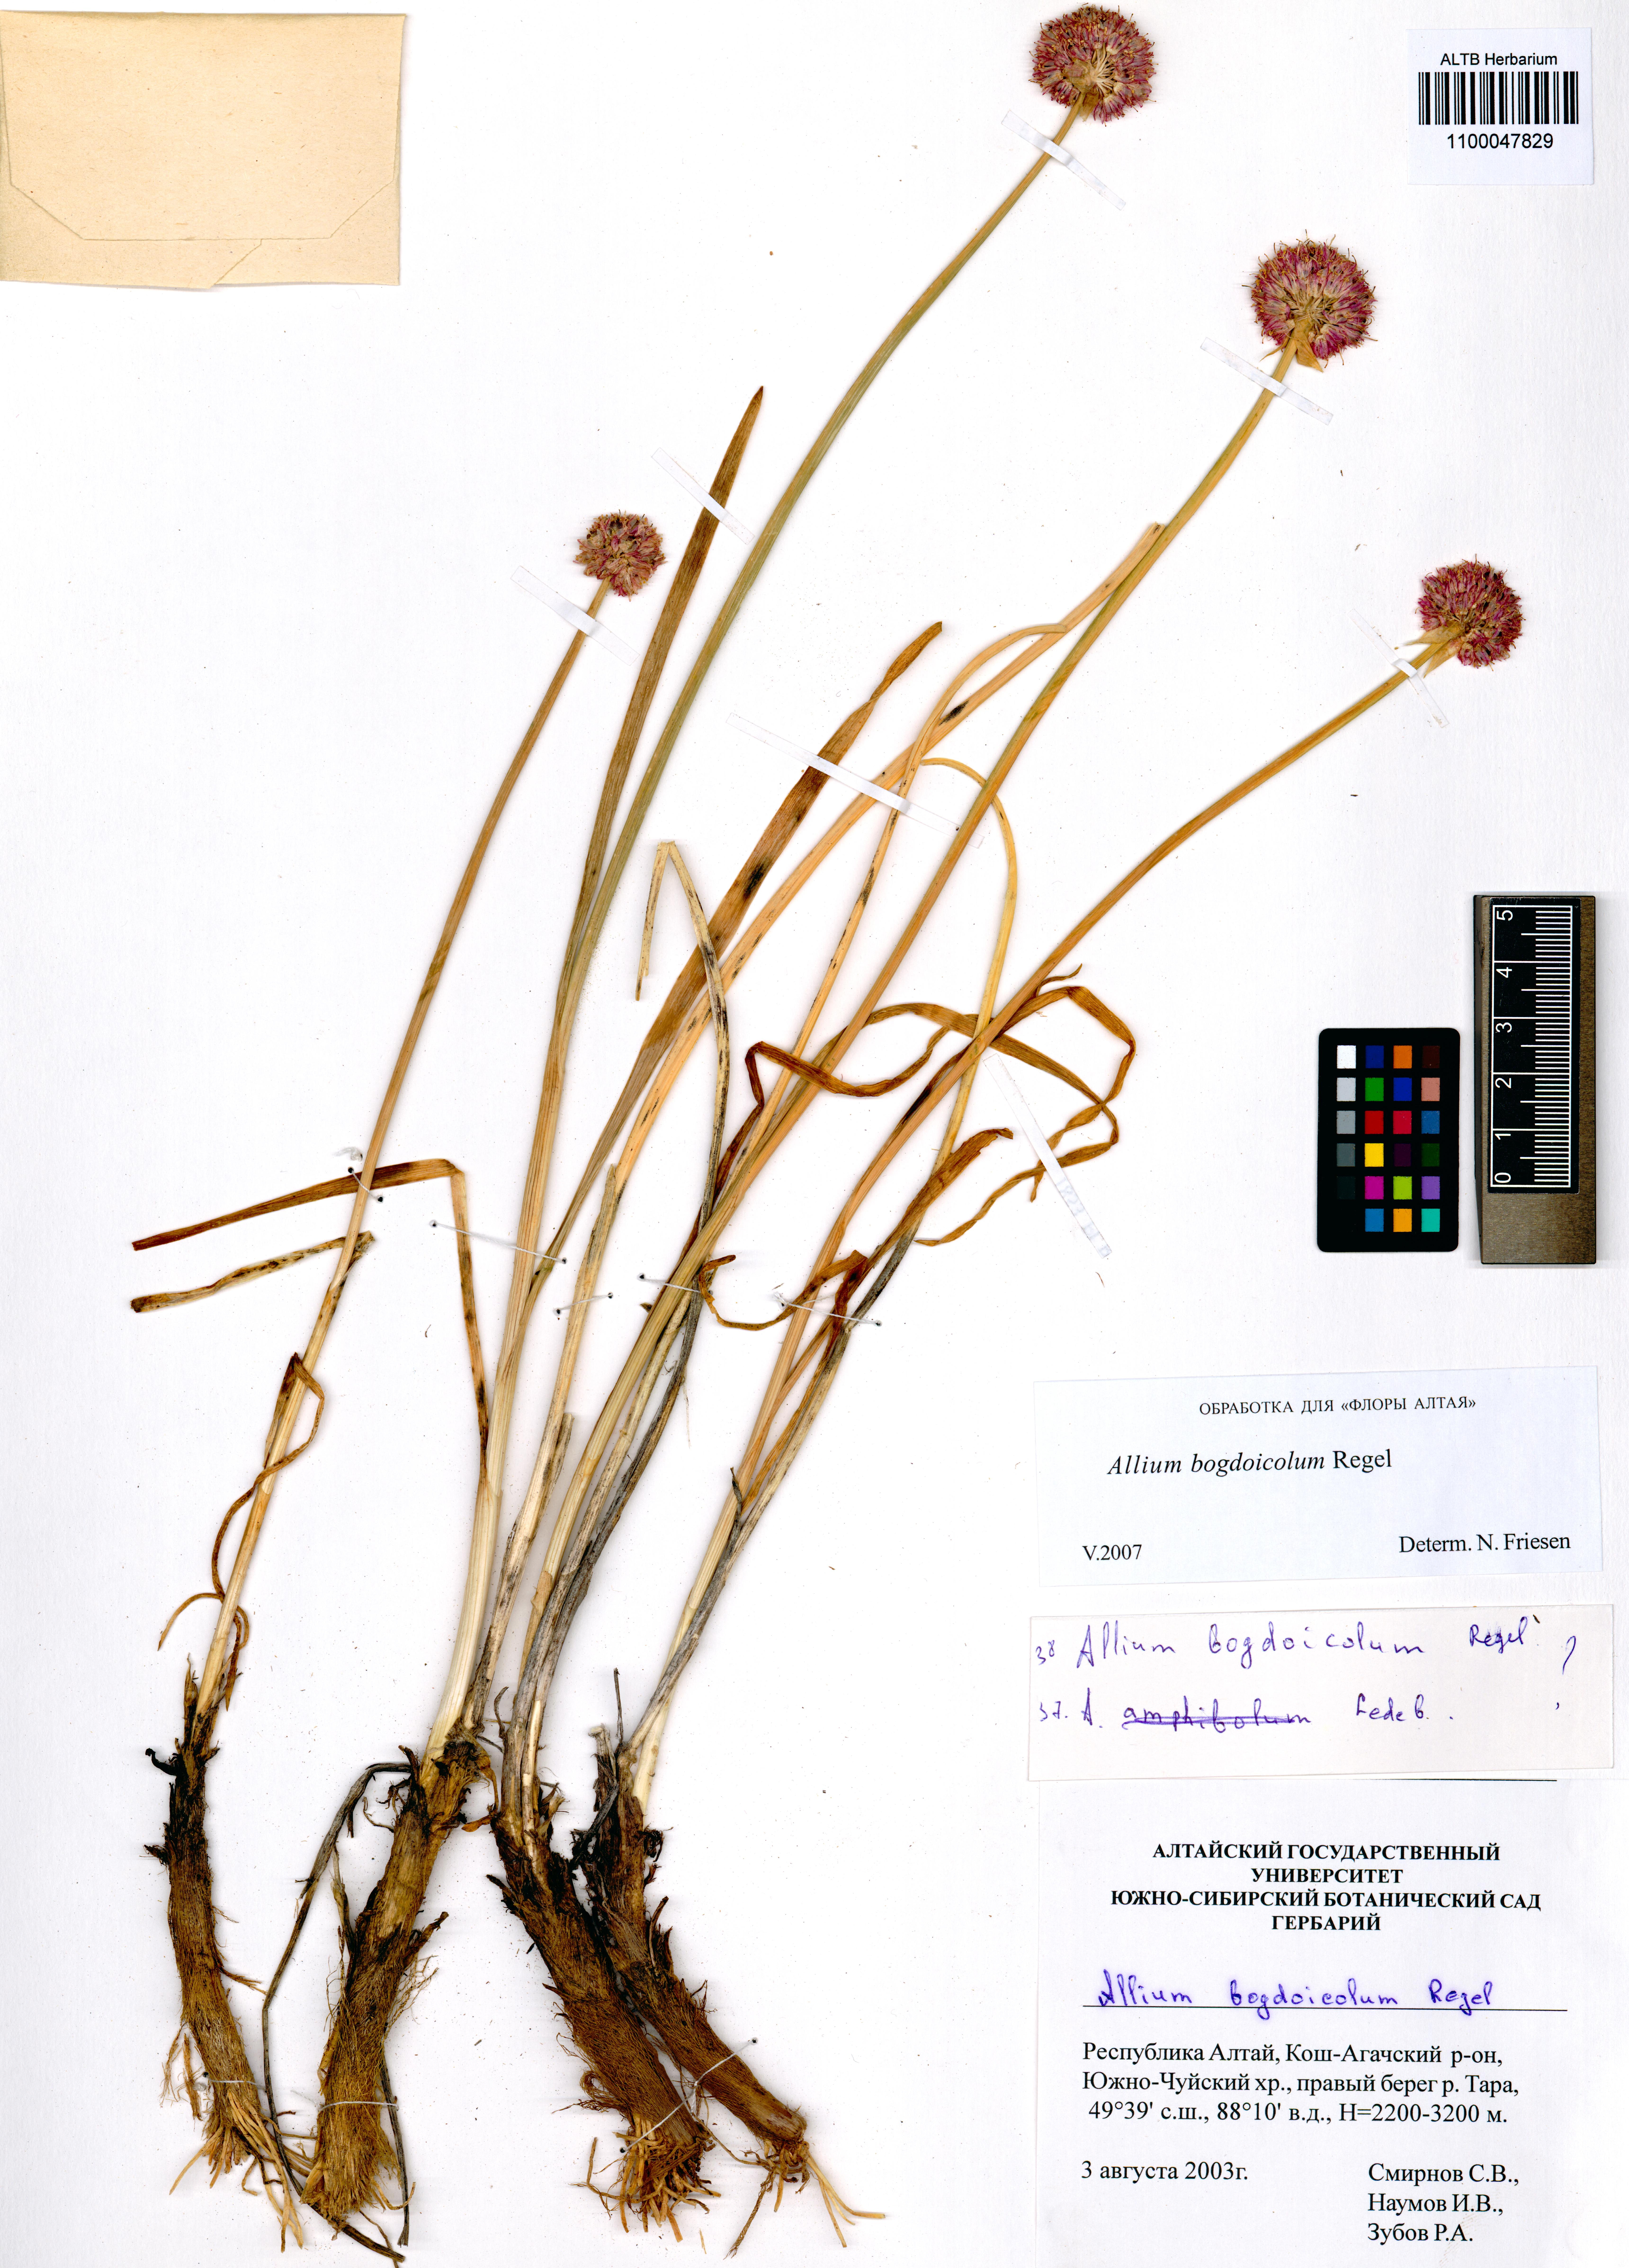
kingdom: Plantae
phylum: Tracheophyta
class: Liliopsida
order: Asparagales
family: Amaryllidaceae
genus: Allium
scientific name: Allium schrenkii
